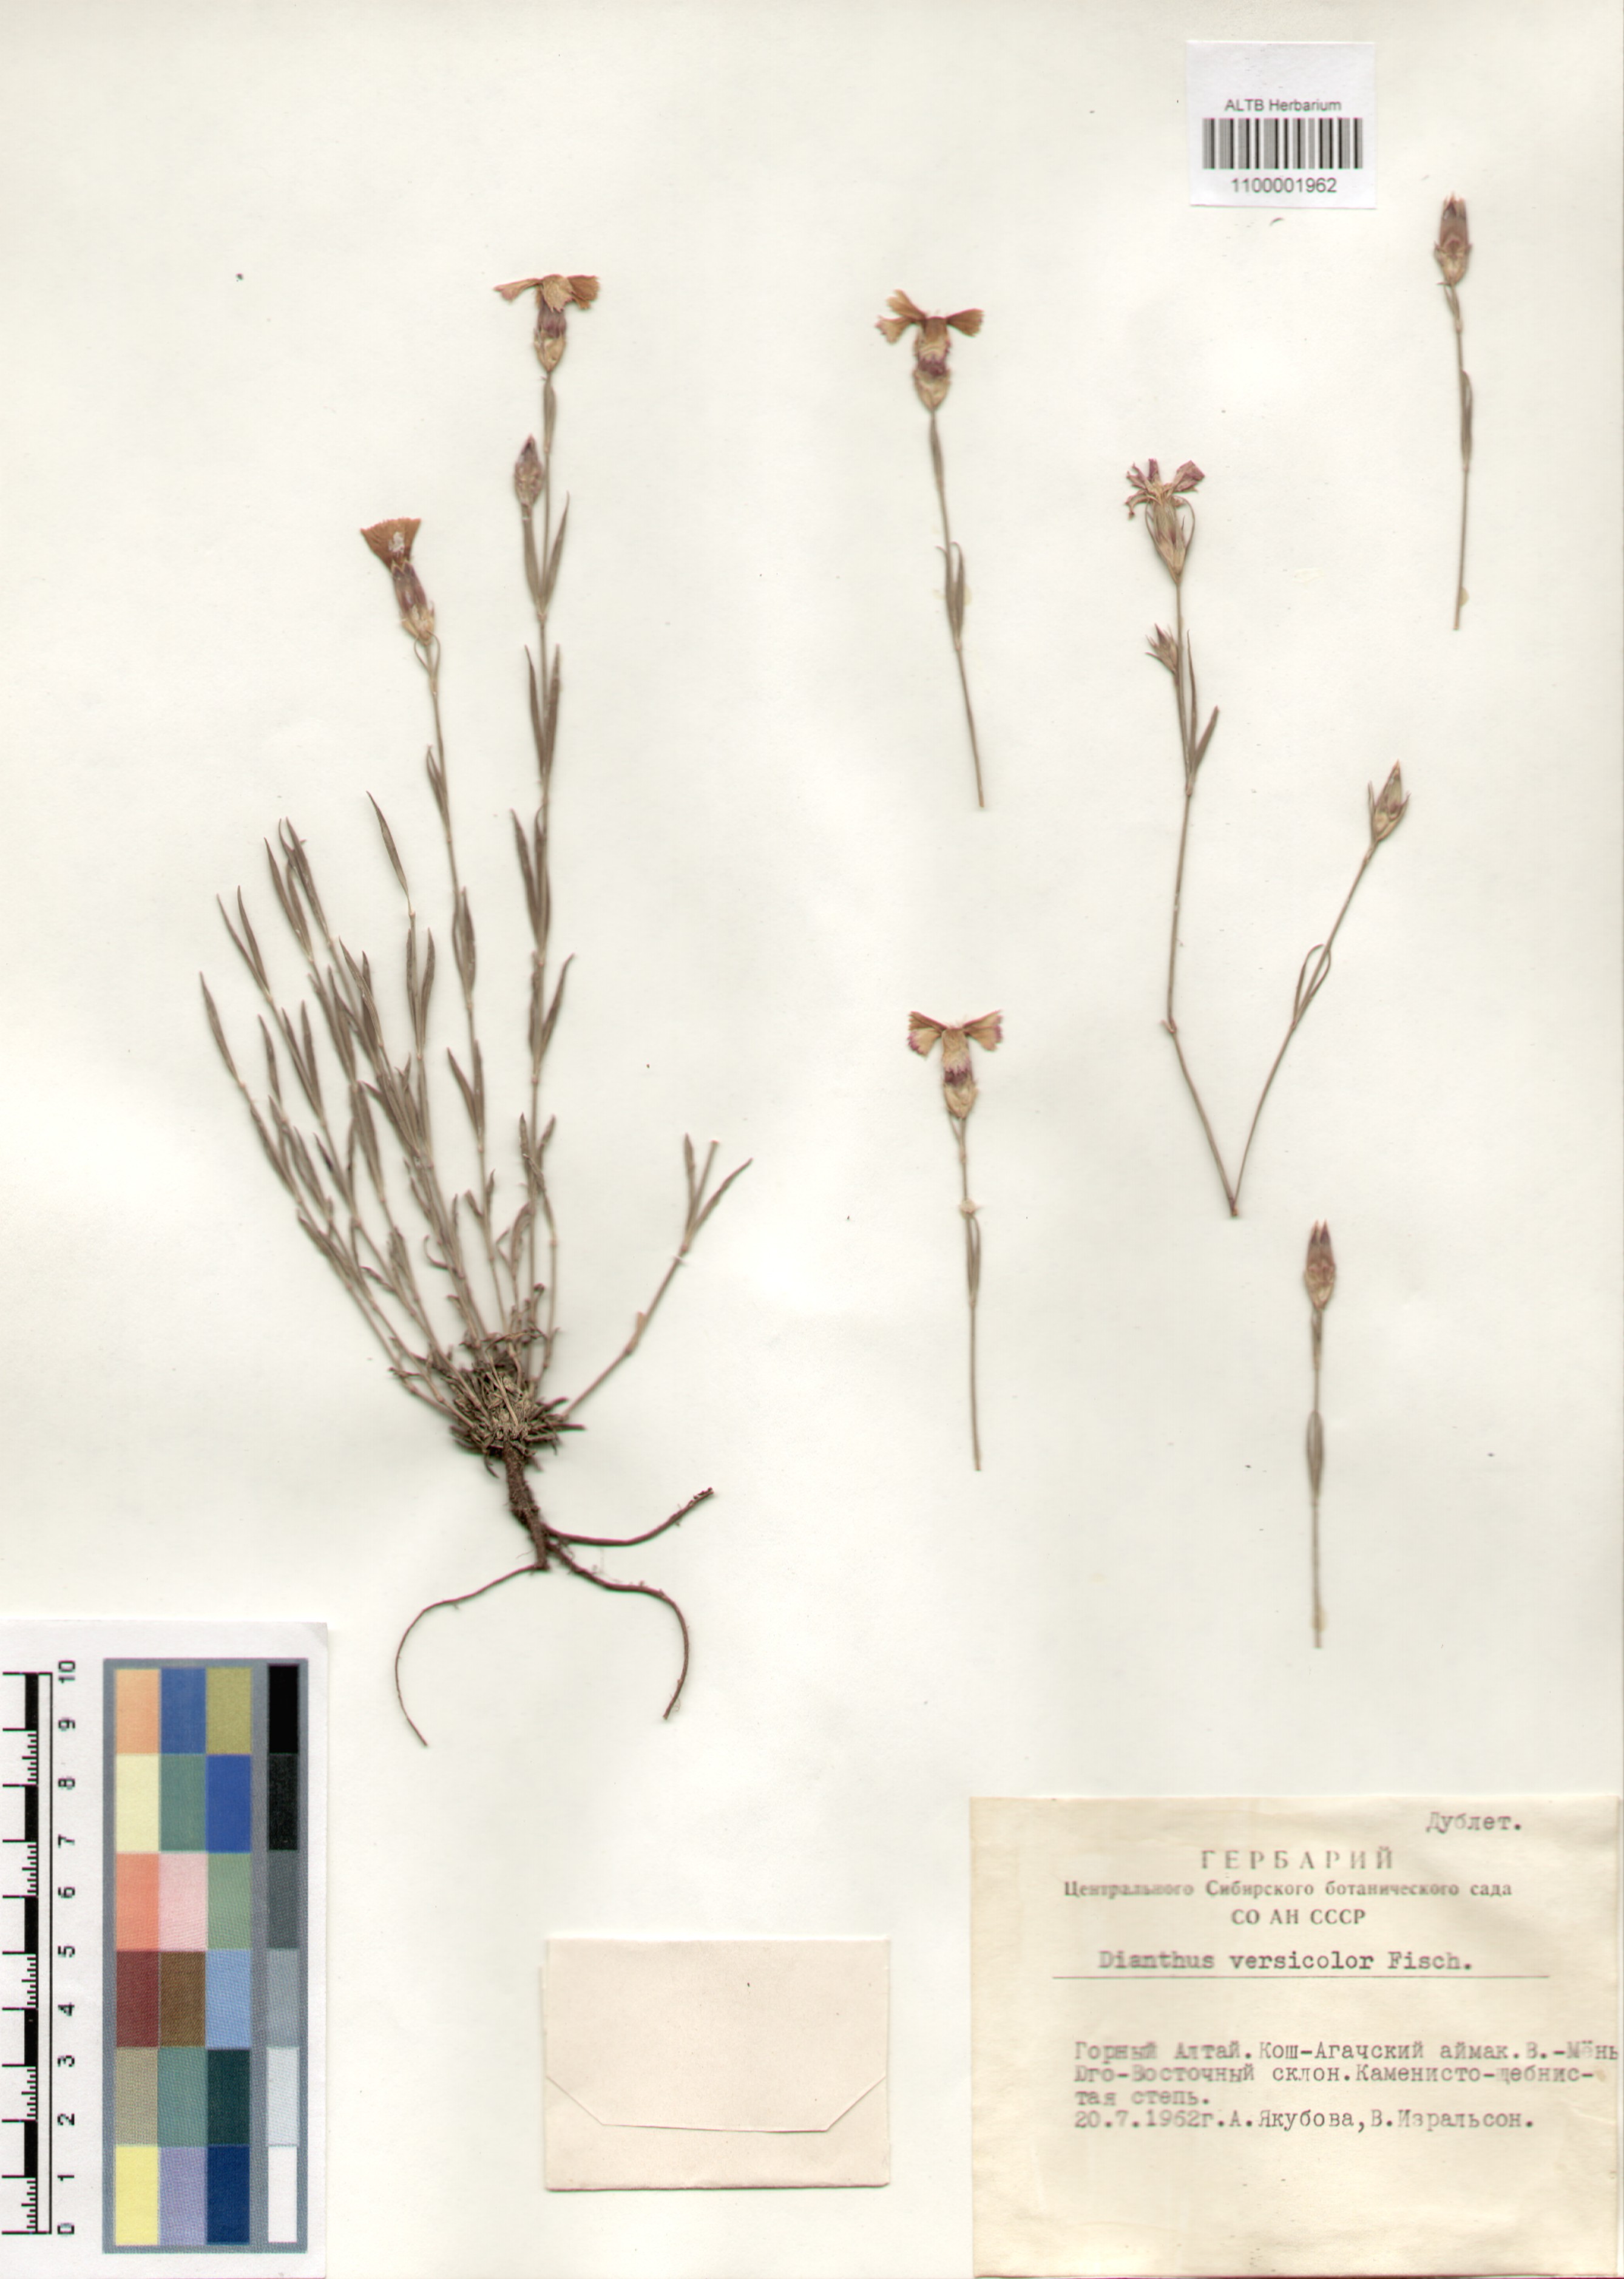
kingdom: Plantae
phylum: Tracheophyta
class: Magnoliopsida
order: Caryophyllales
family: Caryophyllaceae
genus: Dianthus
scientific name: Dianthus chinensis
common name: Rainbow pink
